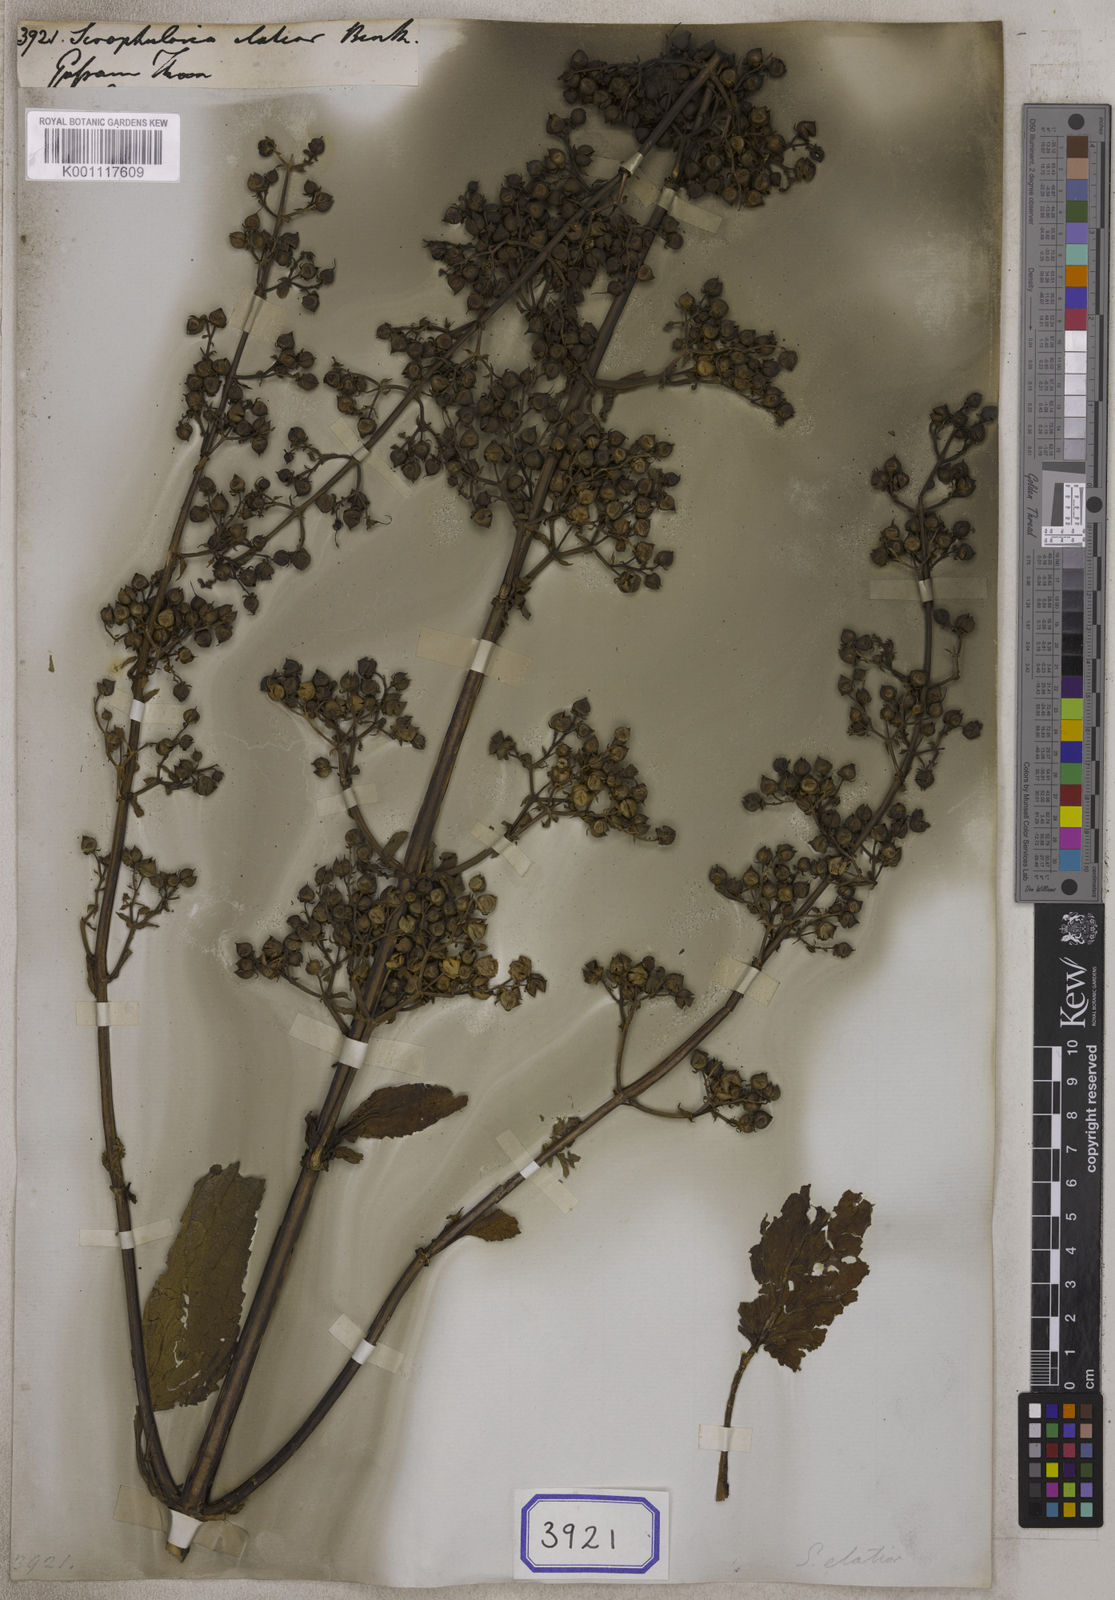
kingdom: Plantae
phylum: Tracheophyta
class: Magnoliopsida
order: Lamiales
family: Scrophulariaceae
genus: Scrophularia
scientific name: Scrophularia elatior
